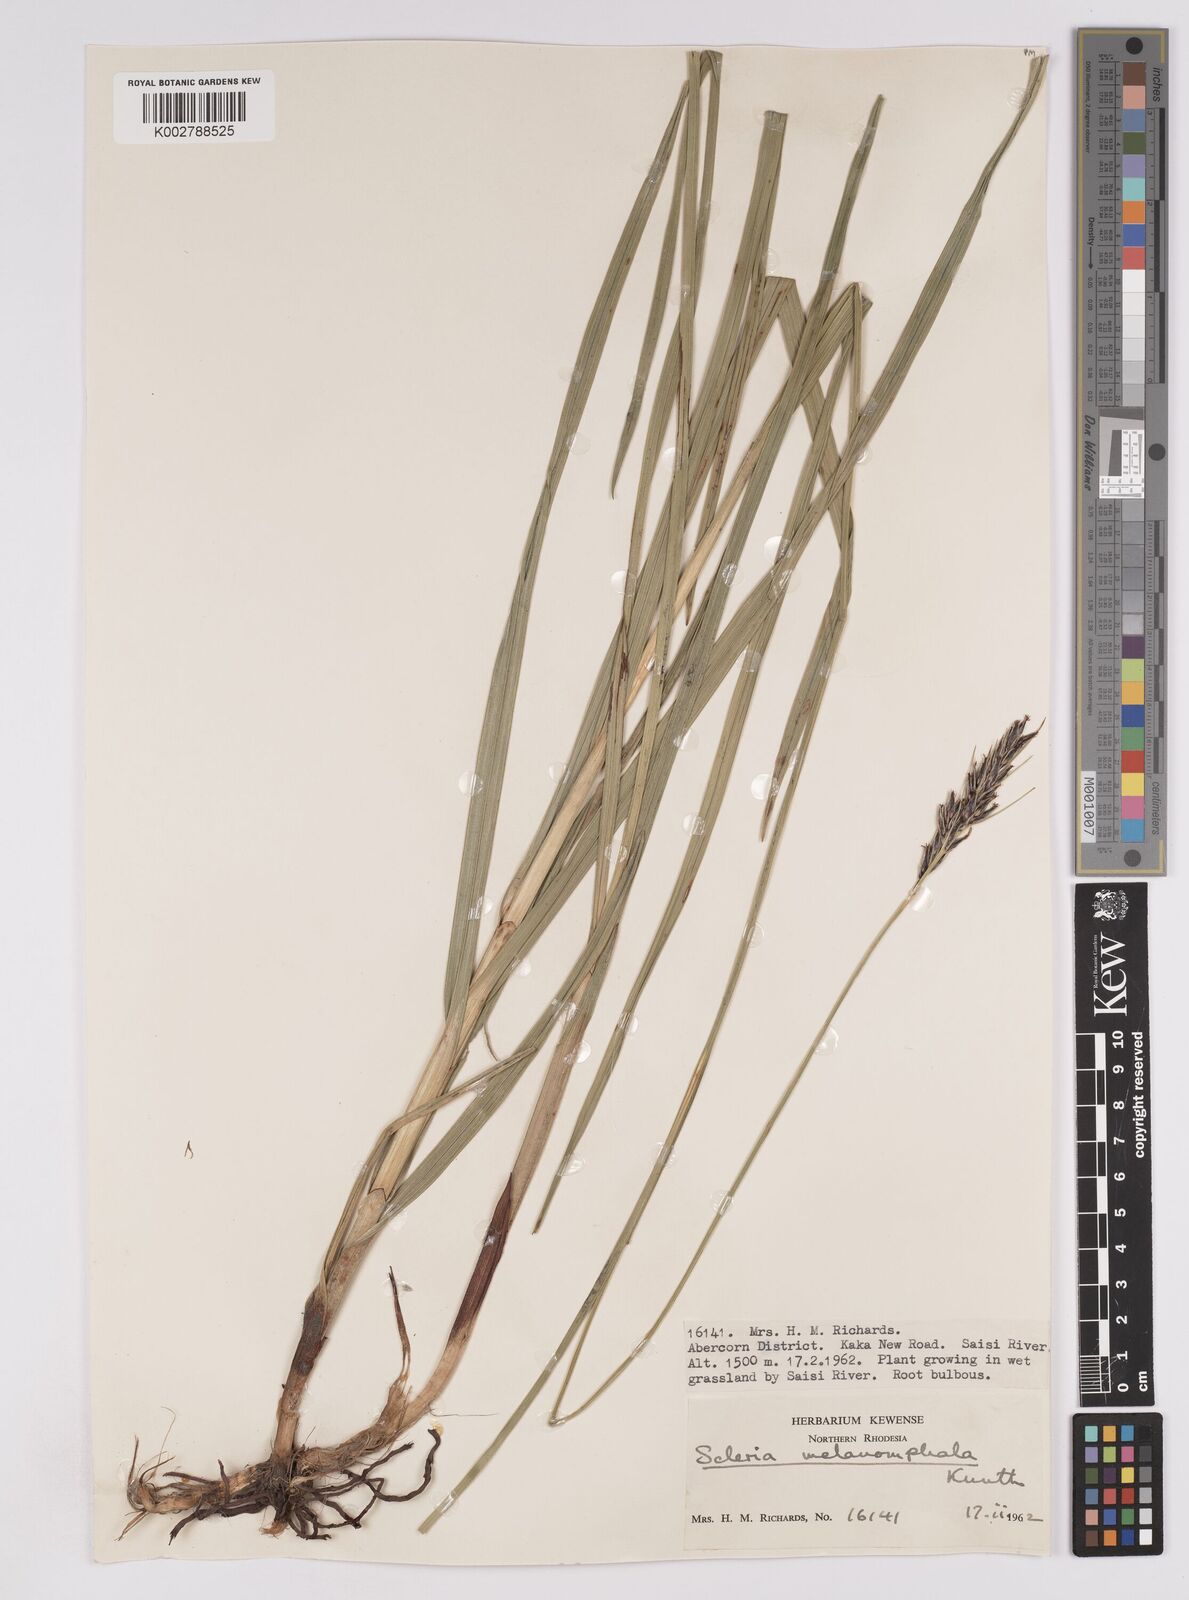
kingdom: Plantae
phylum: Tracheophyta
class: Liliopsida
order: Poales
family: Cyperaceae
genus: Scleria
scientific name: Scleria melanomphala
